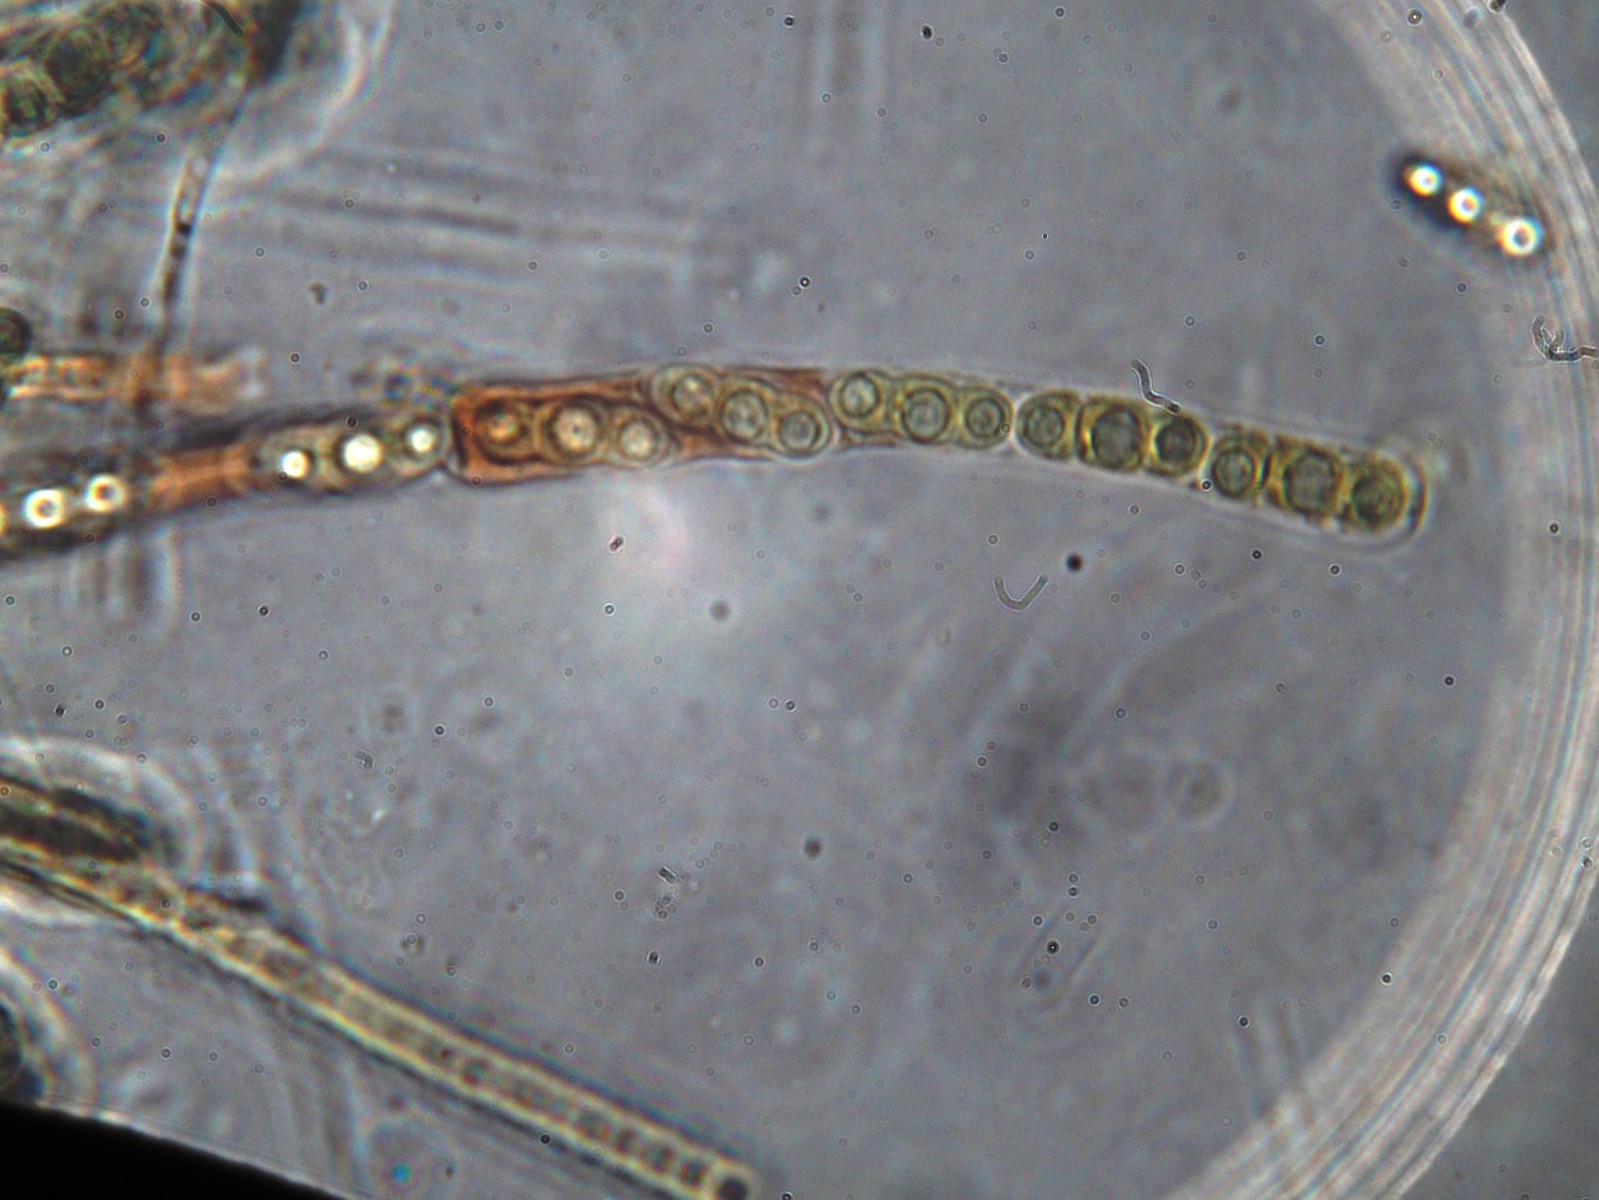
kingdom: Fungi
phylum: Ascomycota
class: Sordariomycetes
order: Xylariales
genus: Melomastia
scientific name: Melomastia mastoidea
